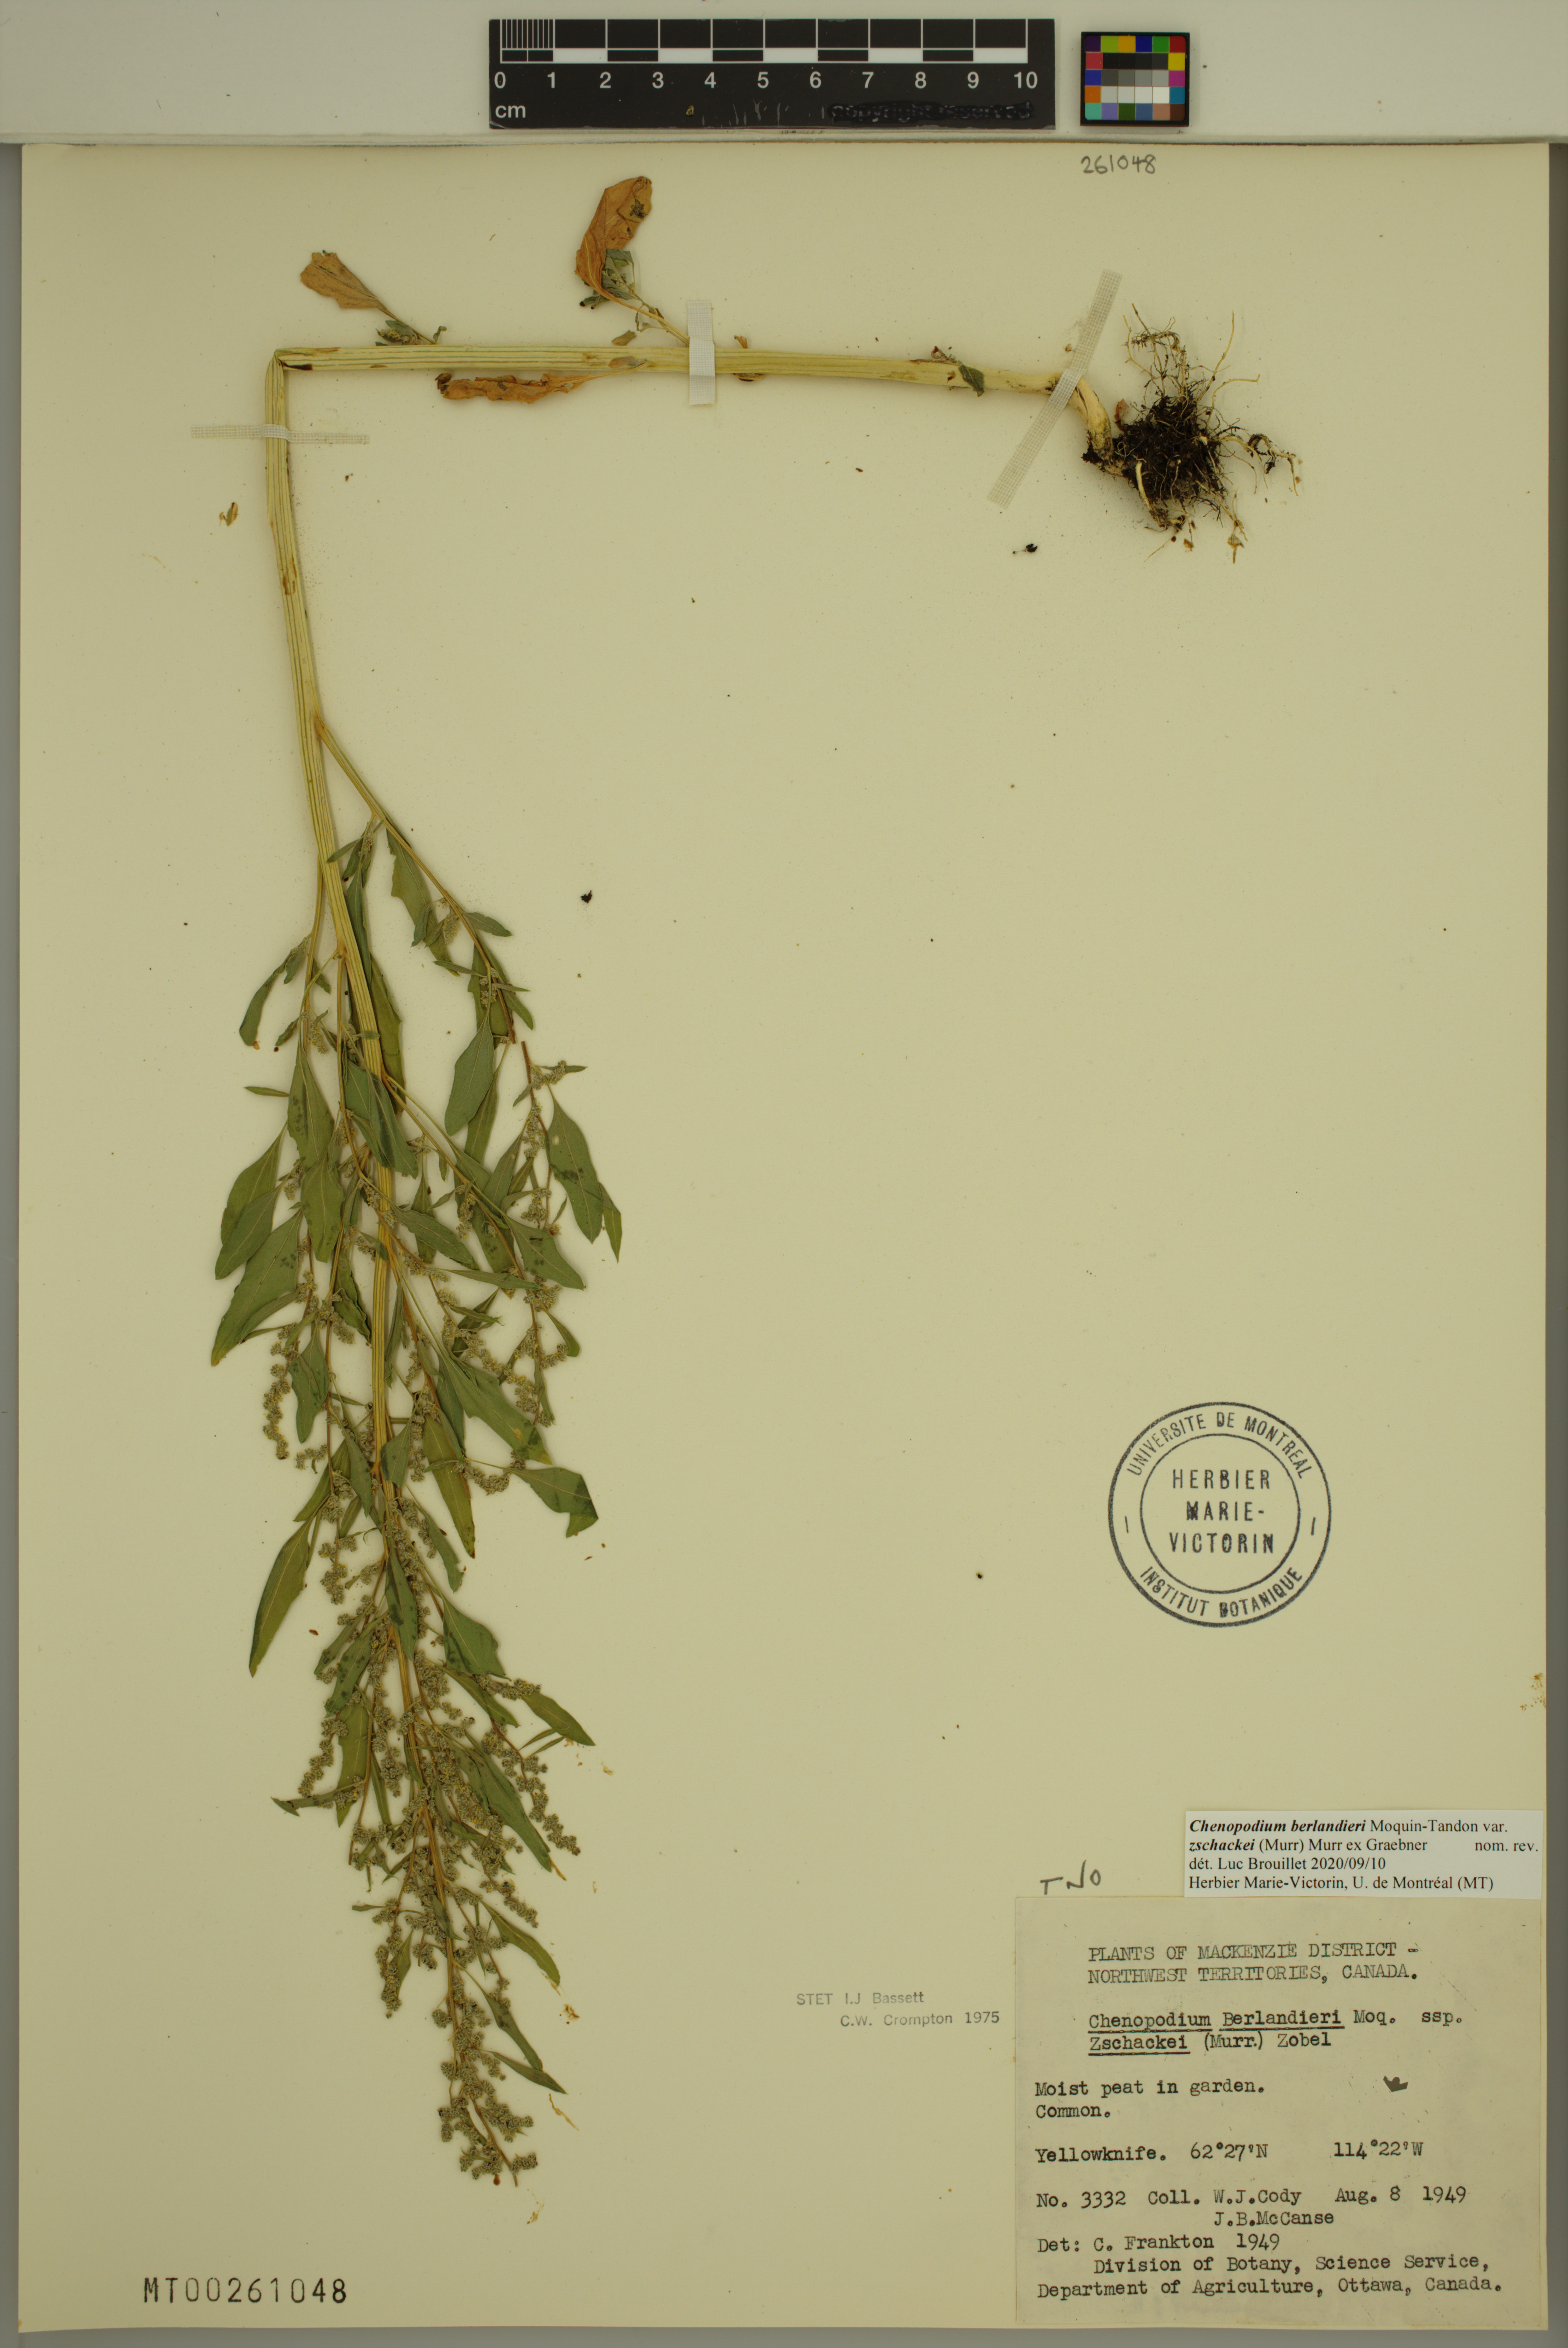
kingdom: Plantae
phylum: Tracheophyta
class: Magnoliopsida
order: Caryophyllales
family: Amaranthaceae
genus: Chenopodium
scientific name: Chenopodium berlandieri
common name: Pit-seed goosefoot
